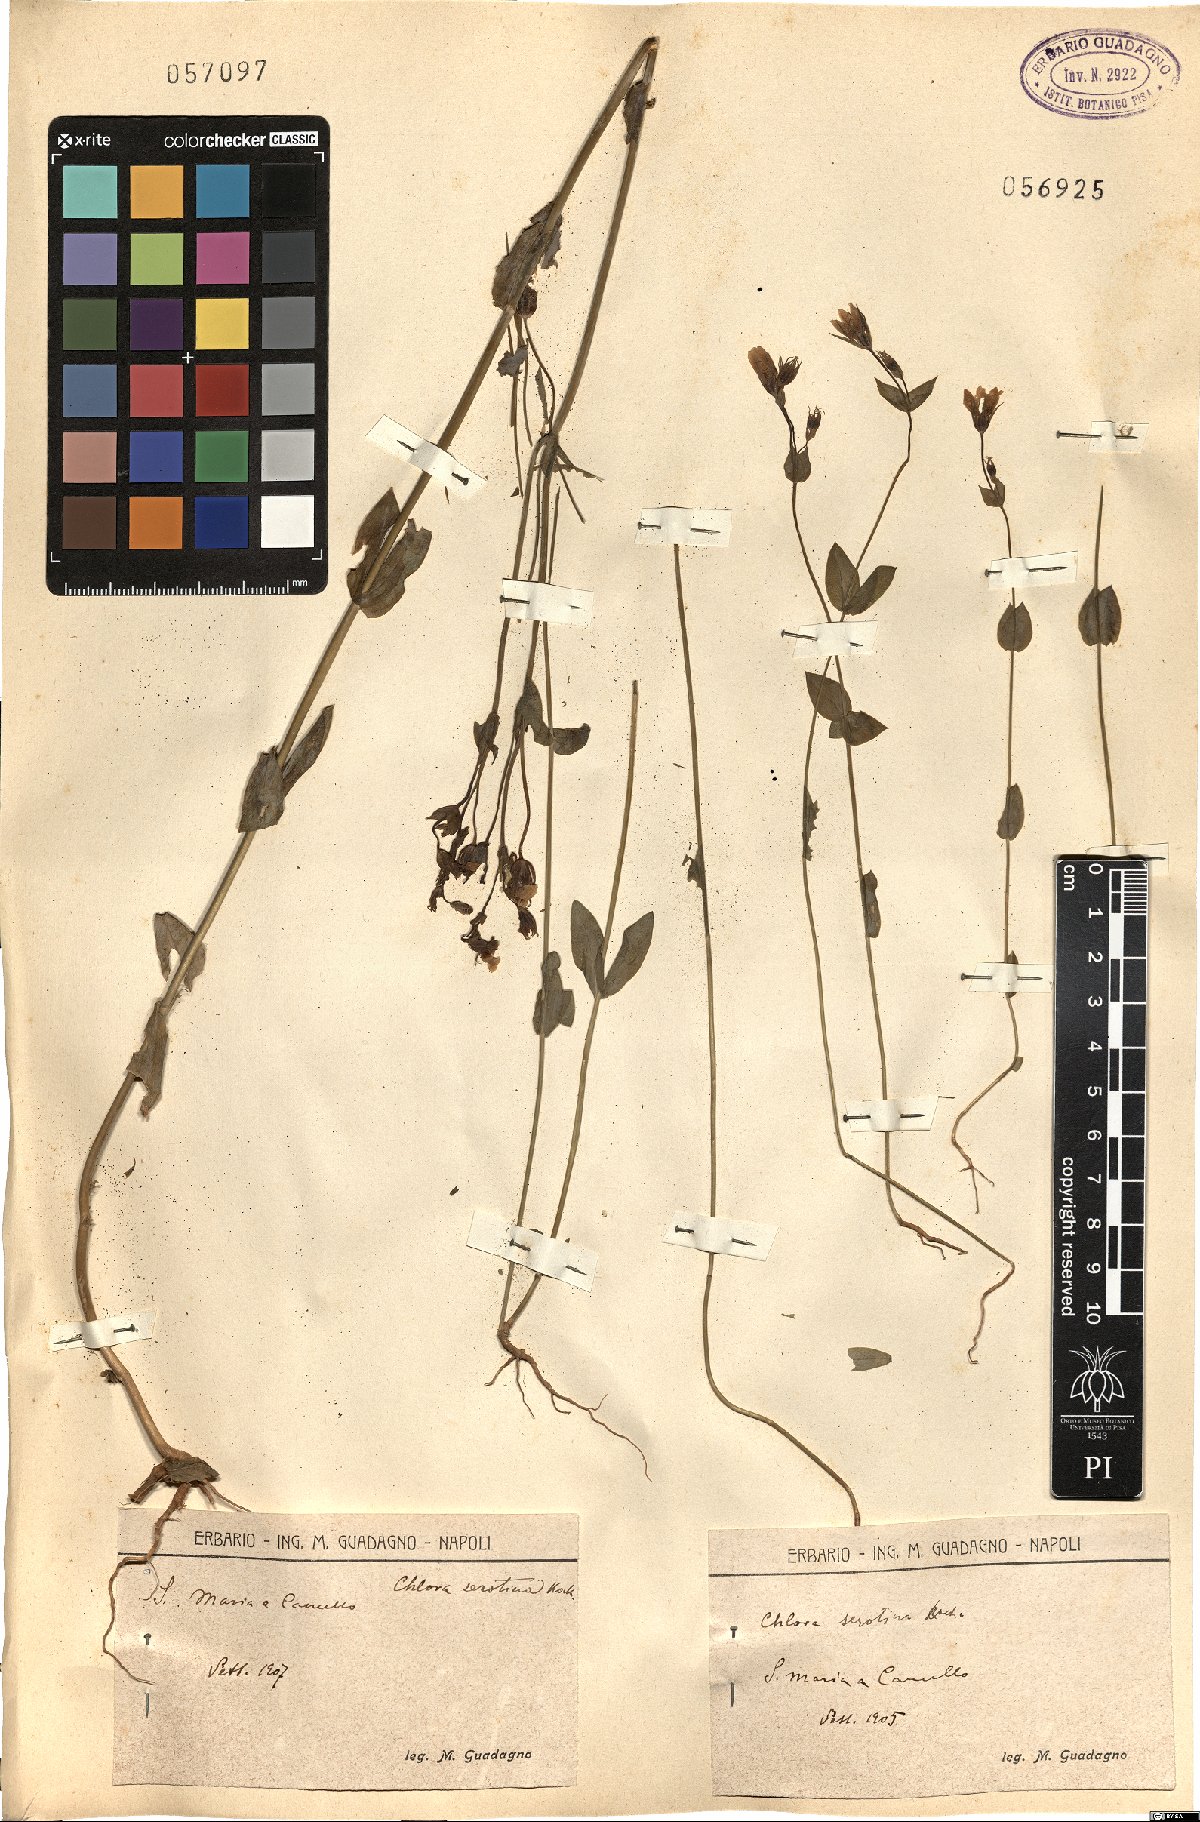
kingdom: Plantae
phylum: Tracheophyta
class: Magnoliopsida
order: Gentianales
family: Gentianaceae
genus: Blackstonia
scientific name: Blackstonia acuminata
